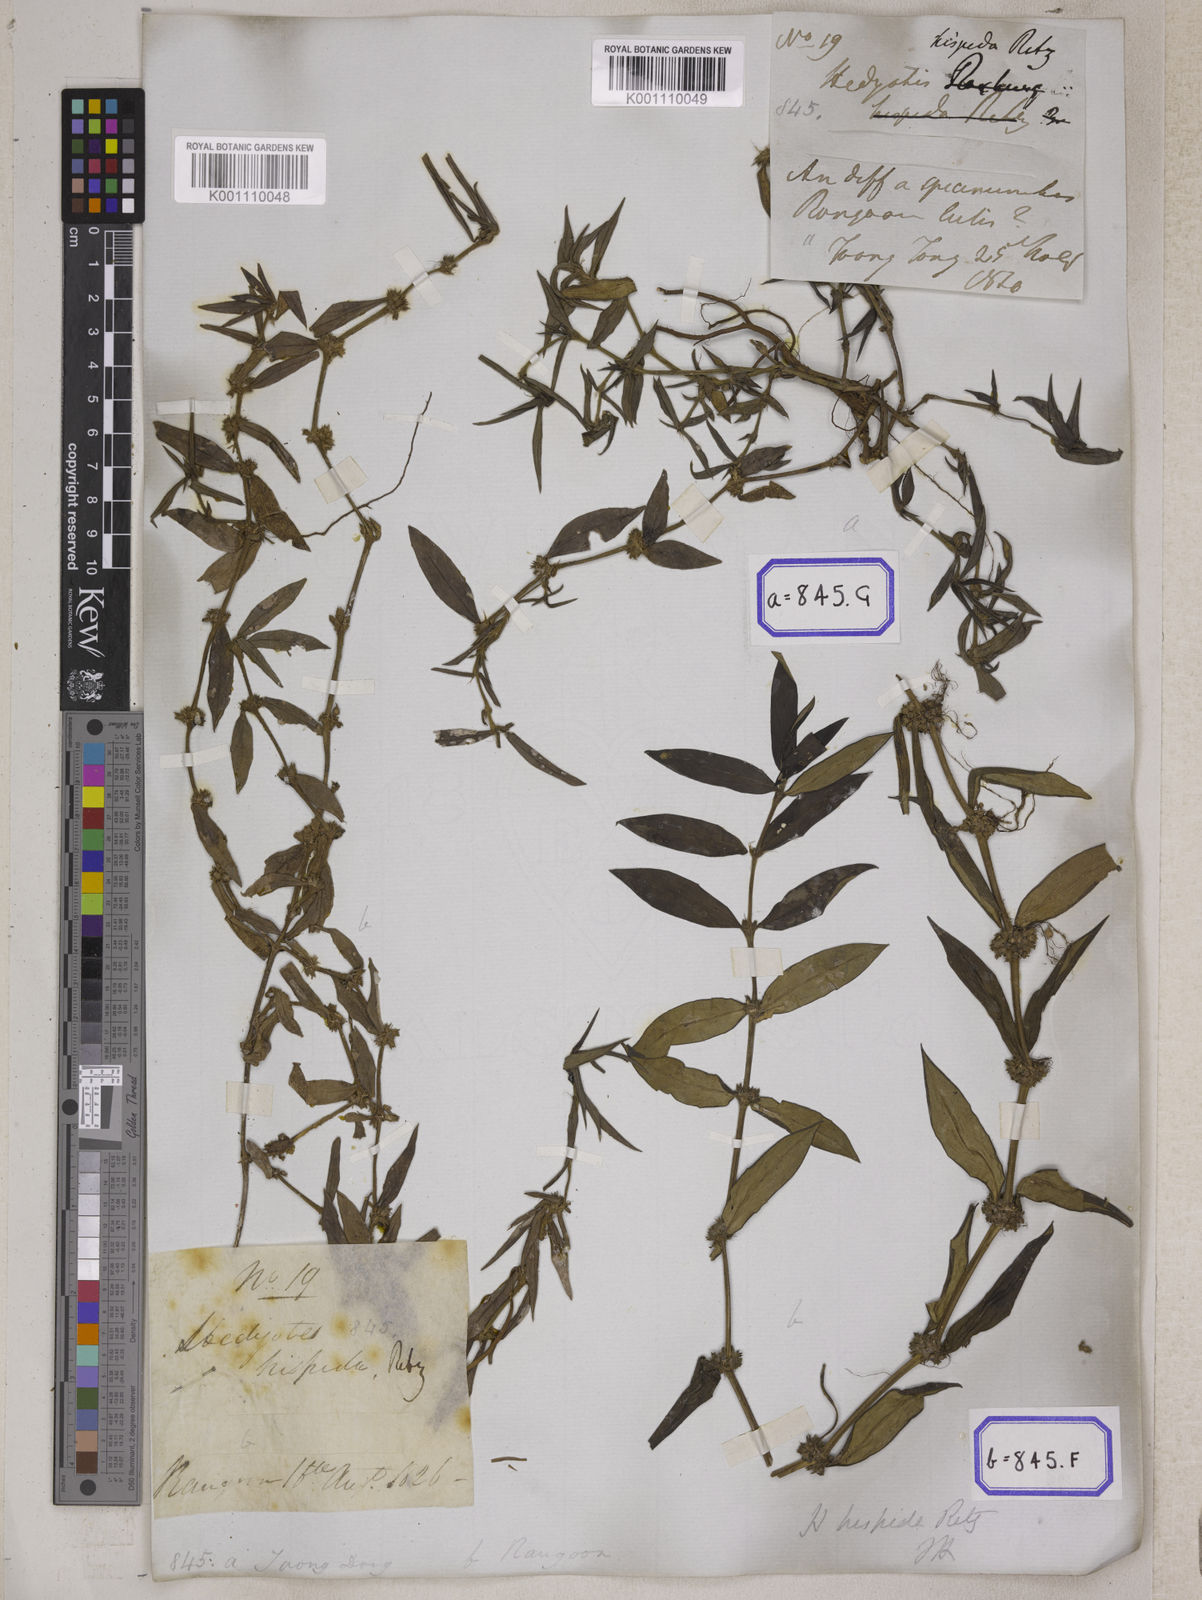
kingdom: Plantae
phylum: Tracheophyta
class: Magnoliopsida
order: Gentianales
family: Rubiaceae
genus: Scleromitrion
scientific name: Scleromitrion verticillatum
